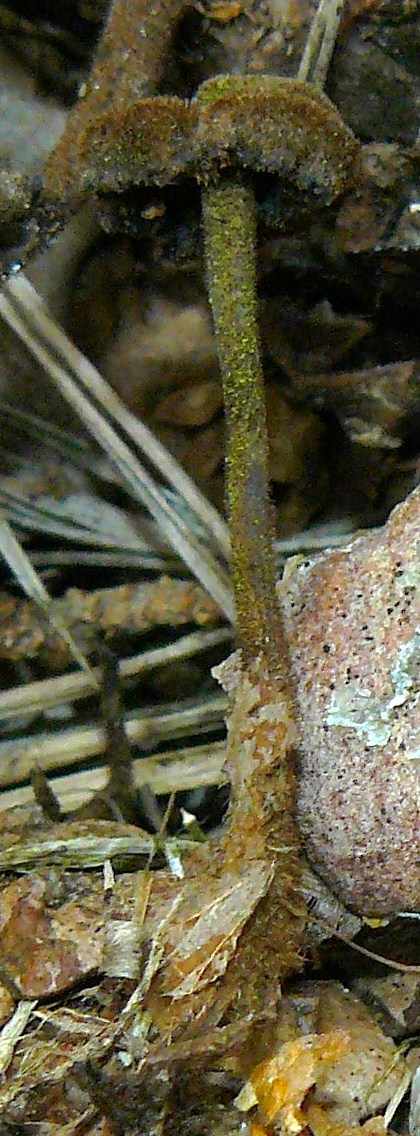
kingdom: Fungi
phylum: Basidiomycota
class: Agaricomycetes
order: Russulales
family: Auriscalpiaceae
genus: Auriscalpium
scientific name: Auriscalpium vulgare
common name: koglepigsvamp
